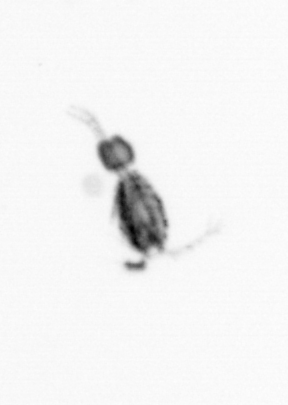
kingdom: Animalia
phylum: Arthropoda
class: Copepoda
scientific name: Copepoda
